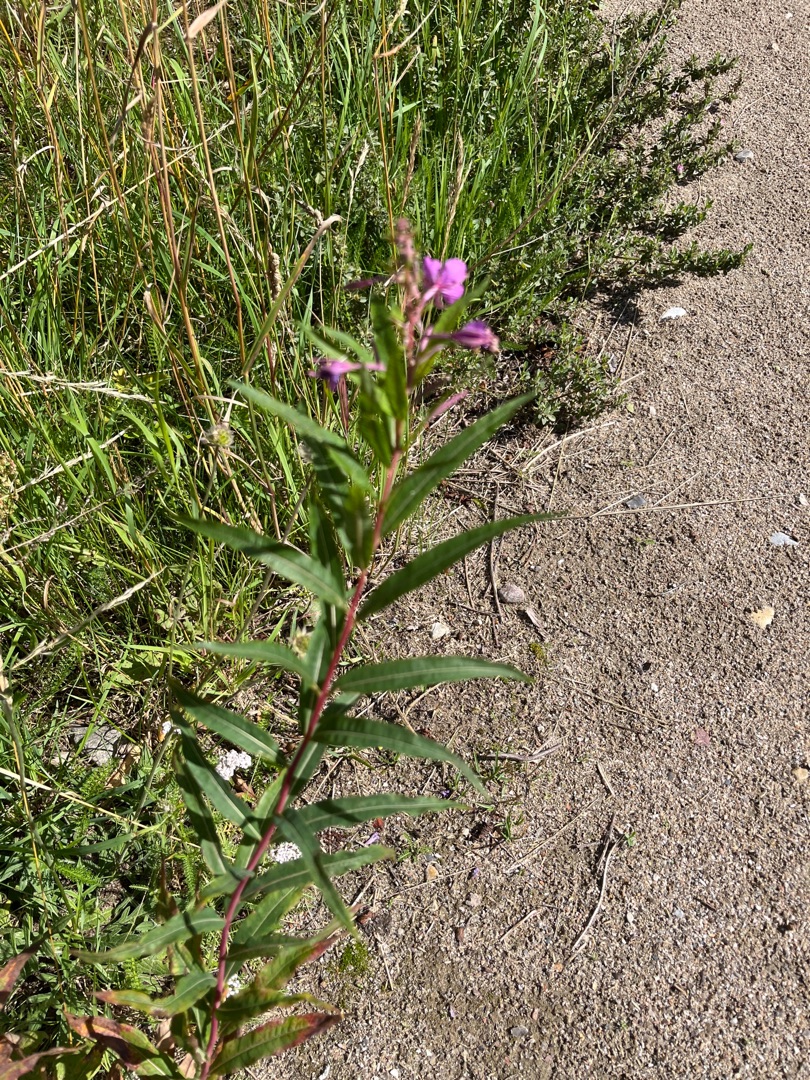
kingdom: Plantae
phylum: Tracheophyta
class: Magnoliopsida
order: Myrtales
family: Onagraceae
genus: Chamaenerion
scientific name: Chamaenerion angustifolium
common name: Gederams
